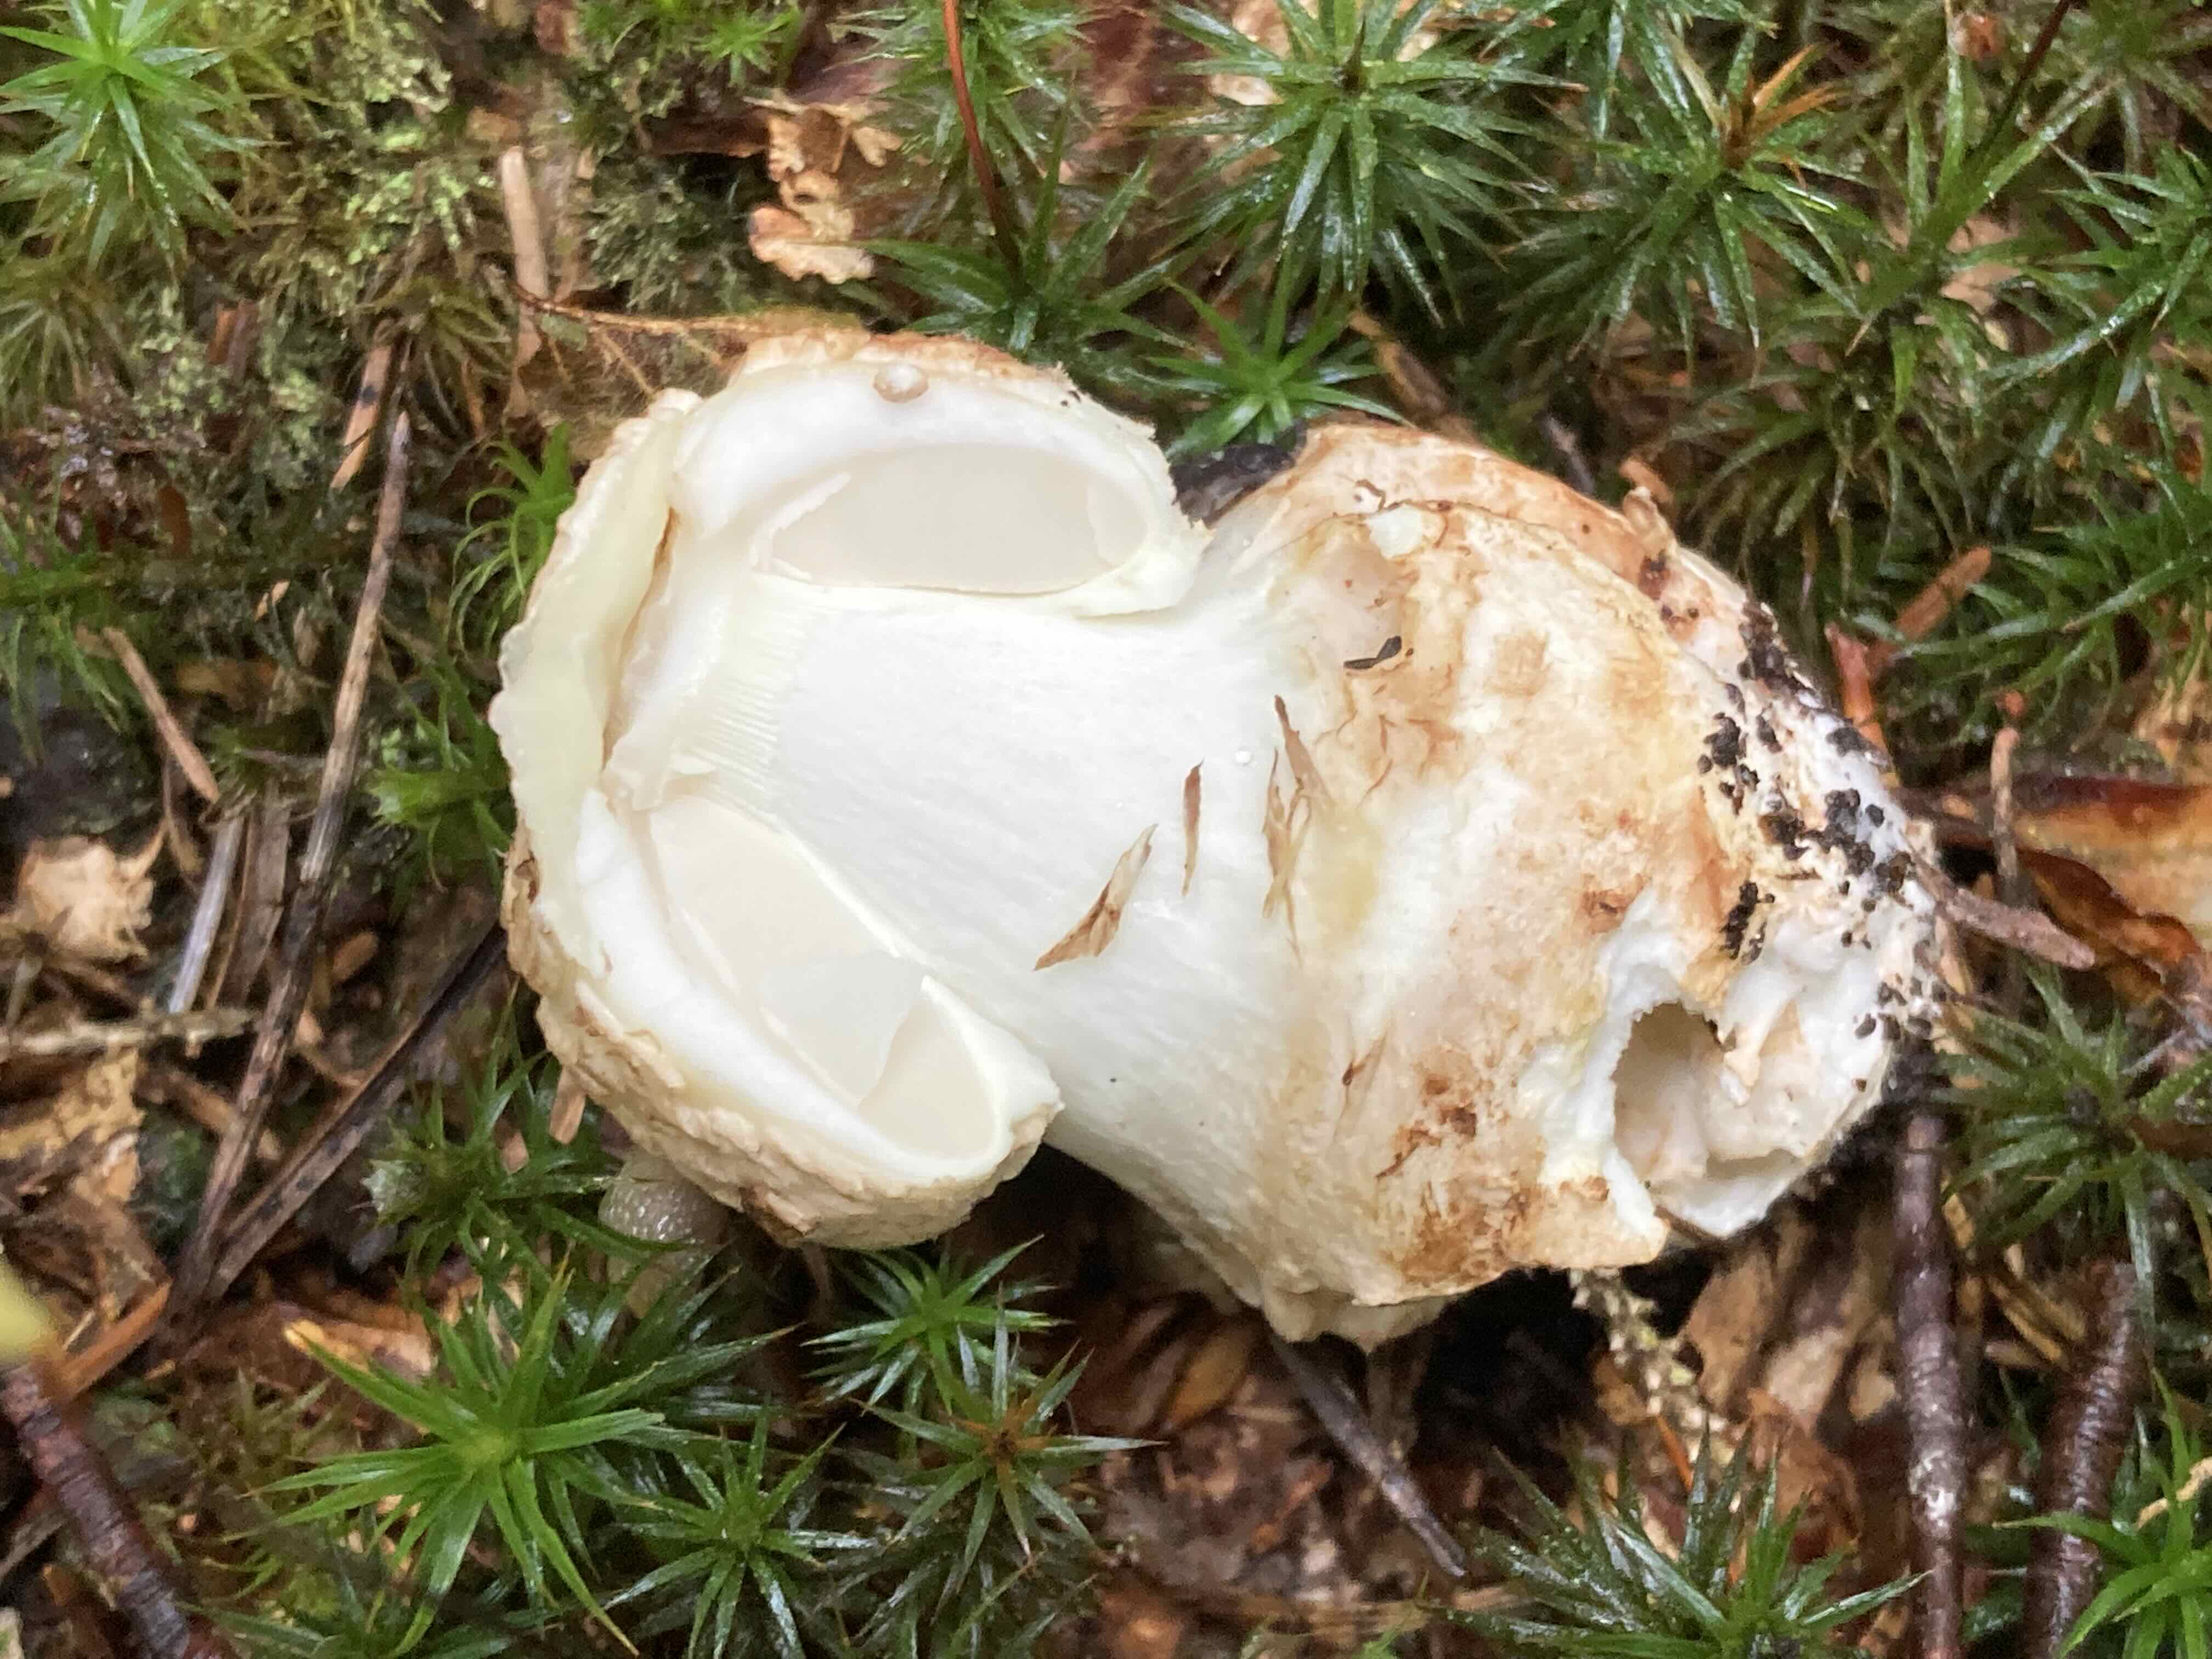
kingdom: Fungi
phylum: Basidiomycota
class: Agaricomycetes
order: Agaricales
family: Amanitaceae
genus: Amanita
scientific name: Amanita rubescens
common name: rødmende fluesvamp
